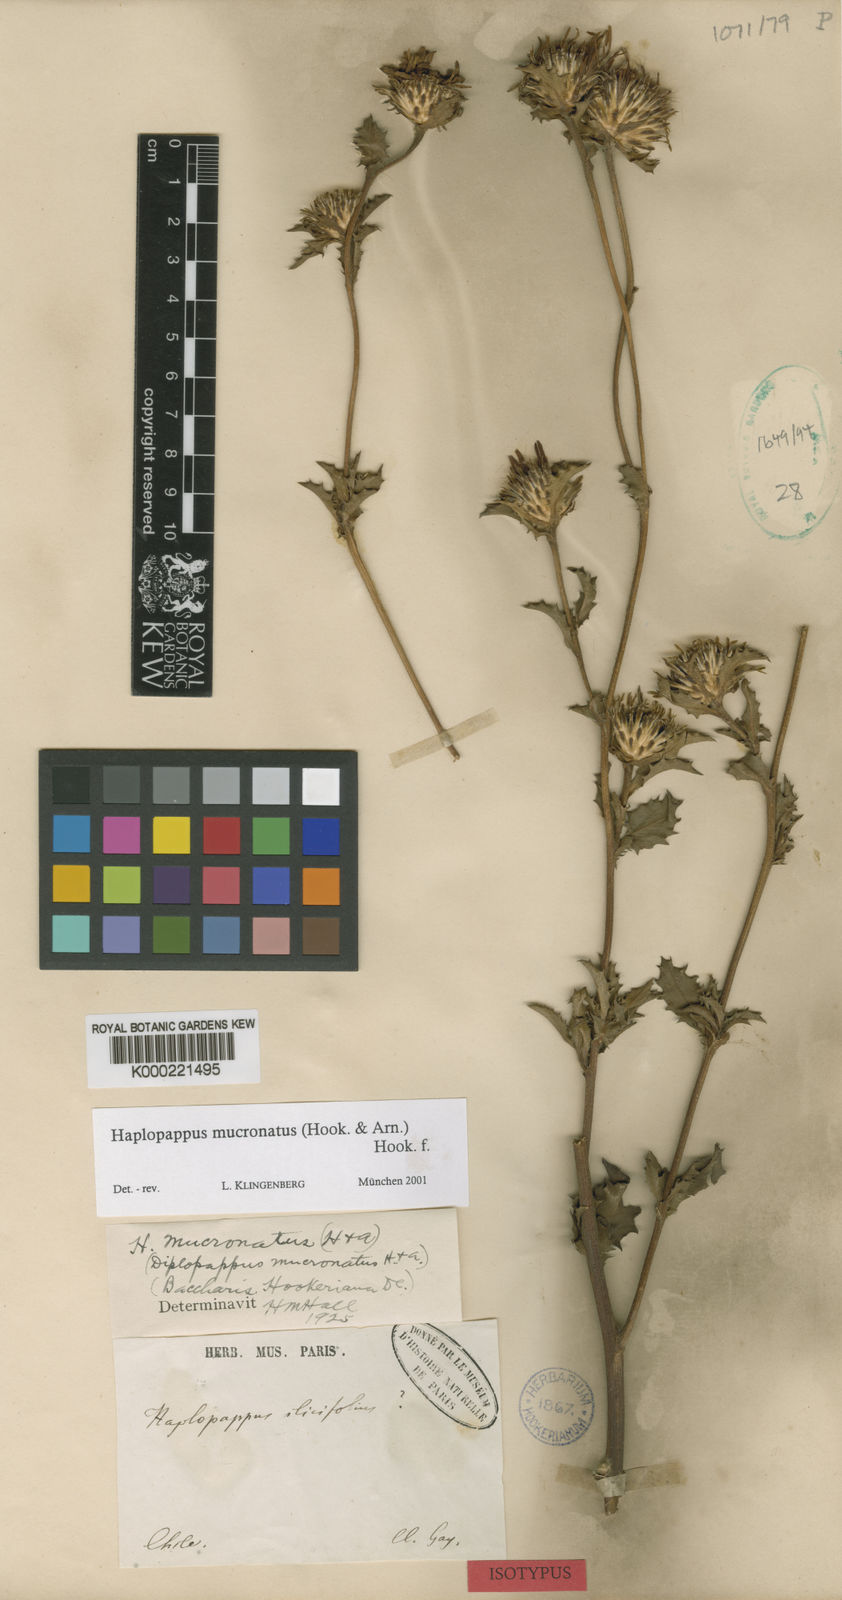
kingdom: Plantae
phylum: Tracheophyta
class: Magnoliopsida
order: Asterales
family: Asteraceae
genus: Haplopappus
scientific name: Haplopappus mucronatus
